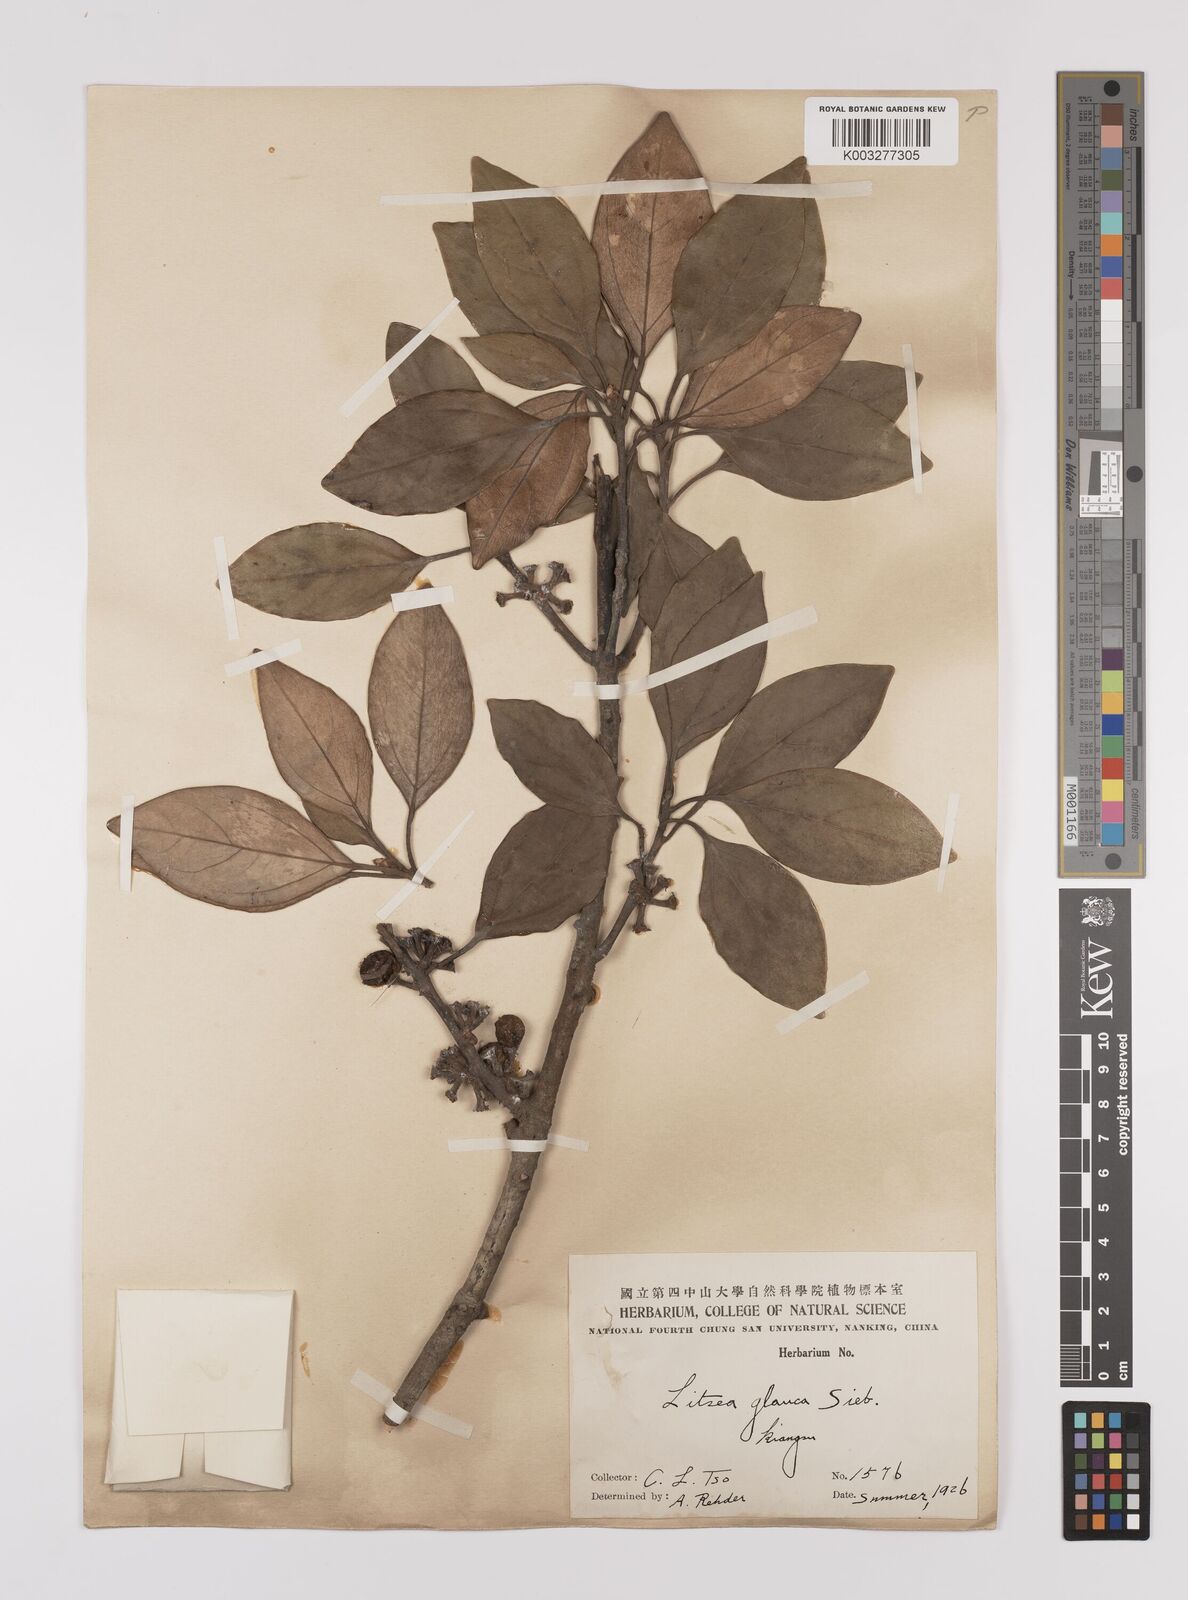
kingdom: Plantae
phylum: Tracheophyta
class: Magnoliopsida
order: Laurales
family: Lauraceae
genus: Neolitsea
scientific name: Neolitsea sericea
